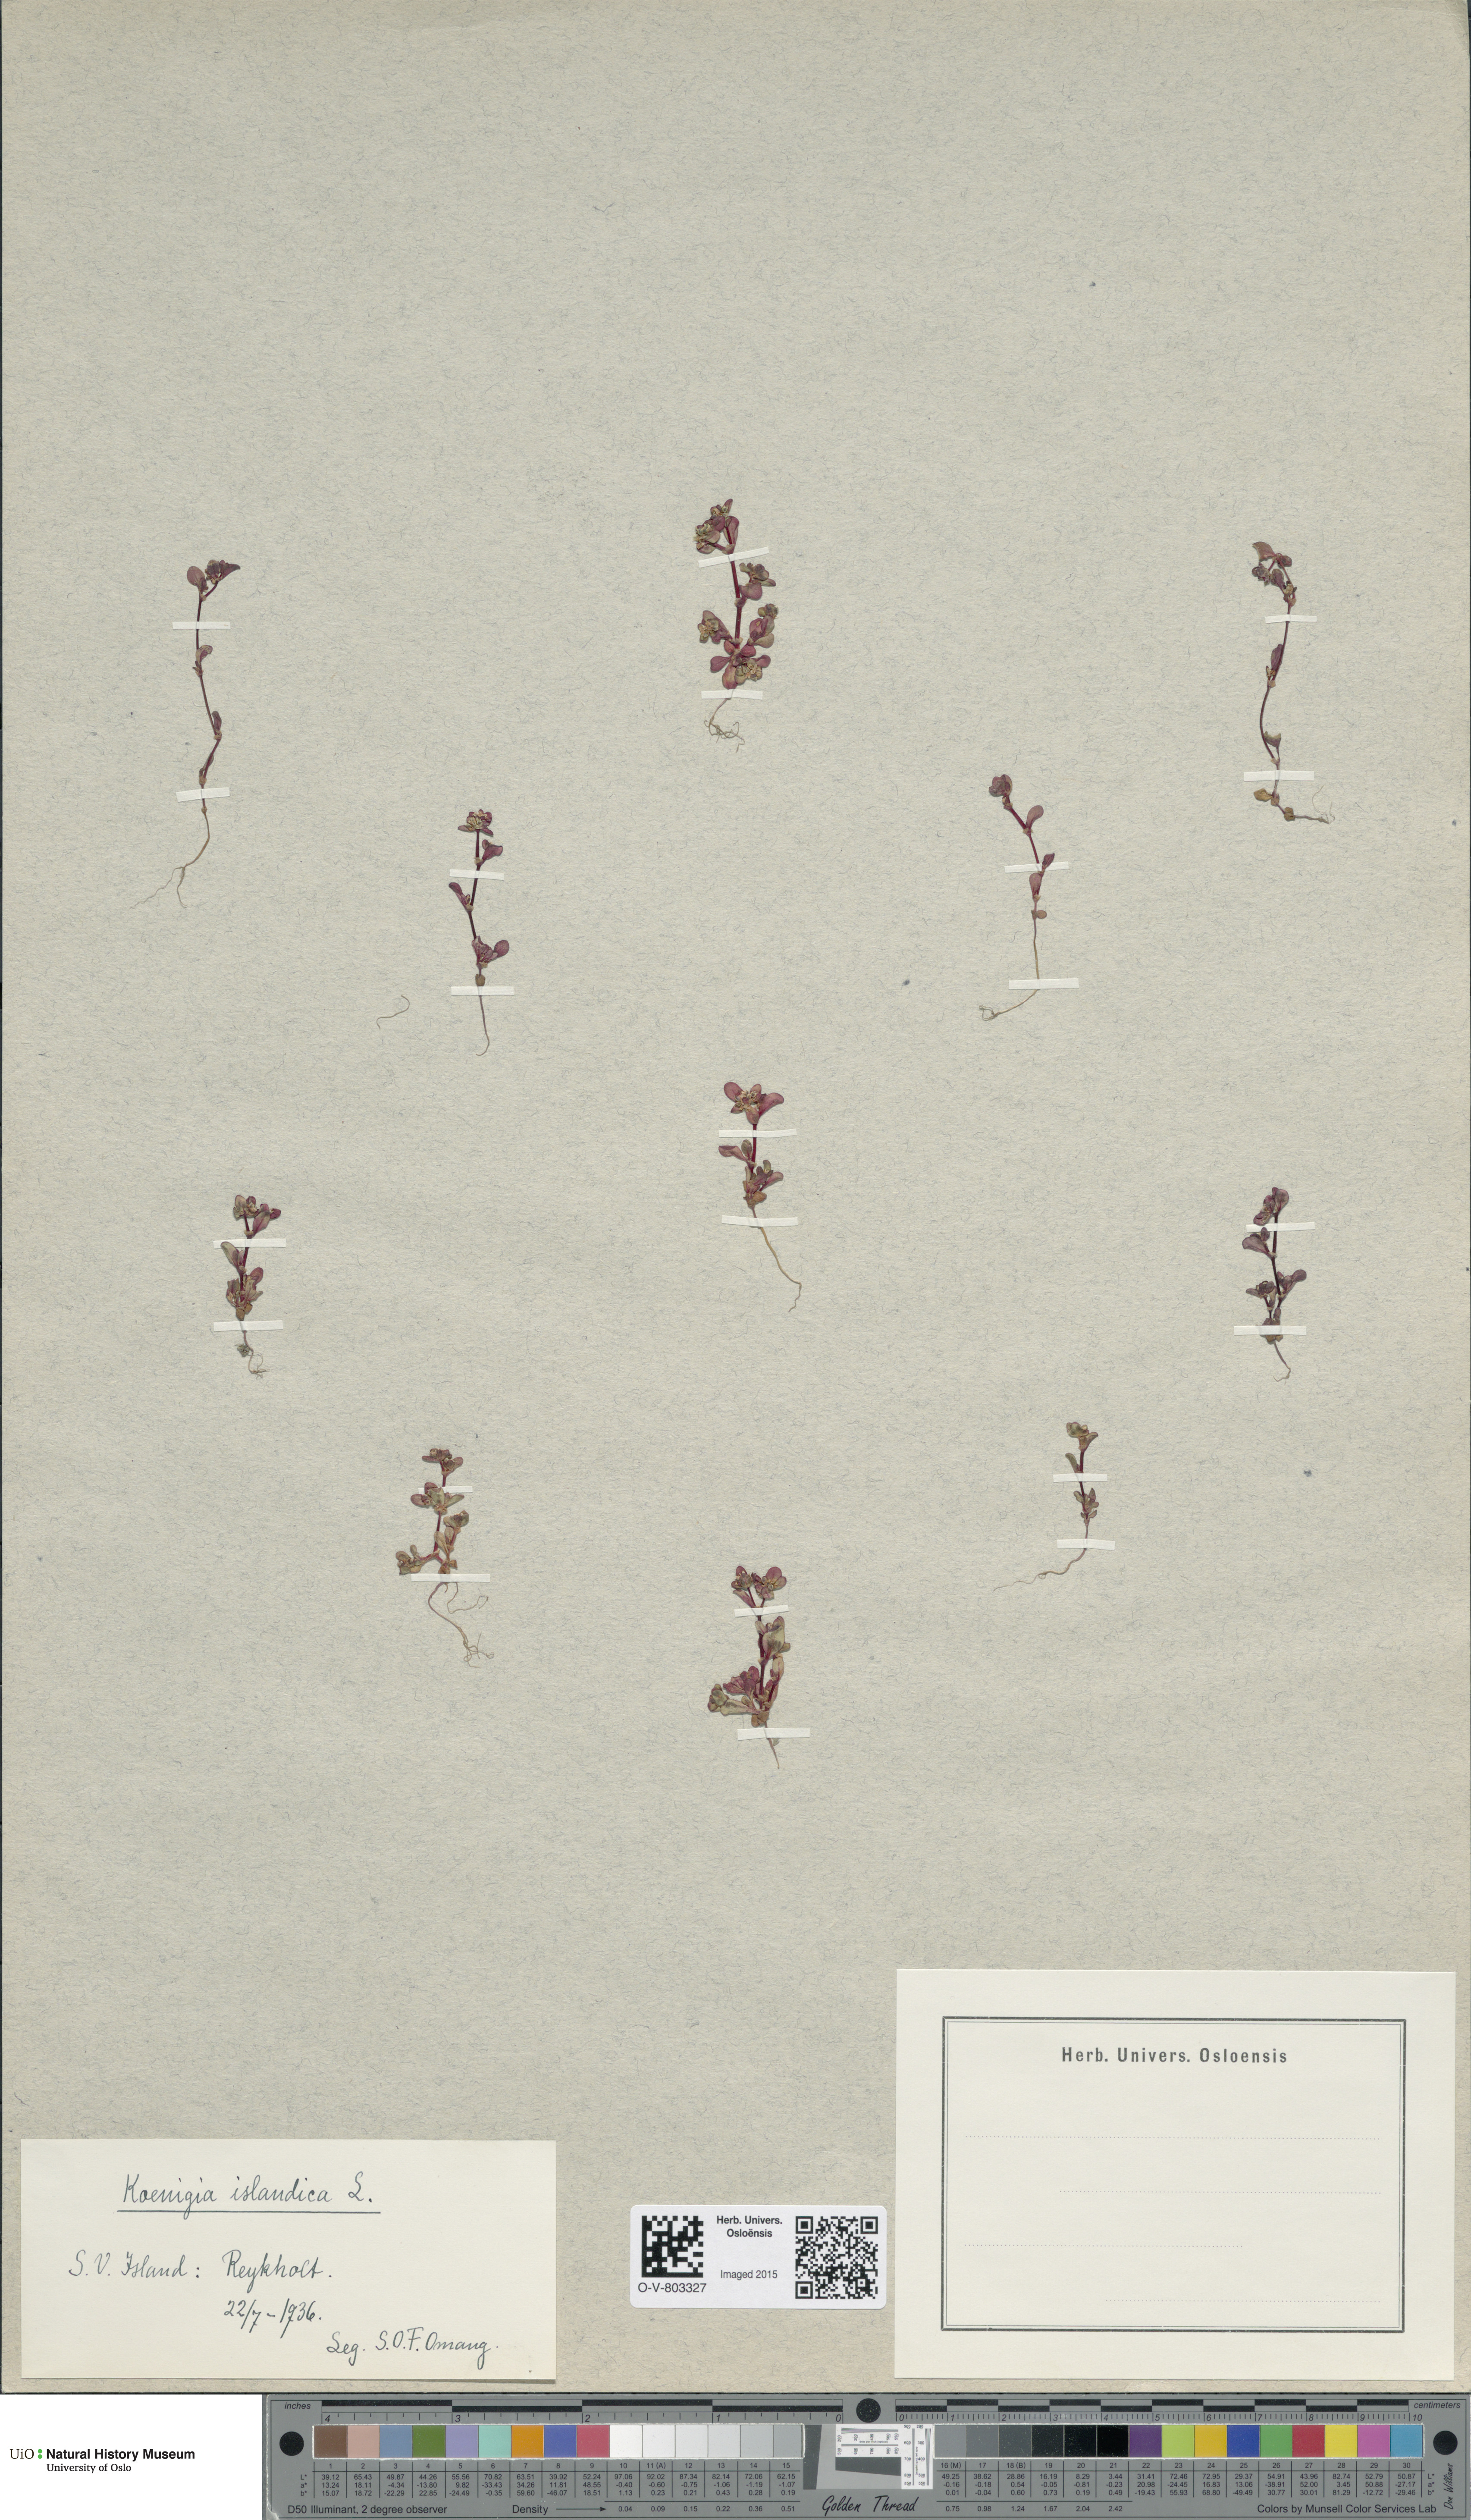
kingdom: Plantae
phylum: Tracheophyta
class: Magnoliopsida
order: Caryophyllales
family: Polygonaceae
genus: Koenigia
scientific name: Koenigia islandica
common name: Iceland-purslane
